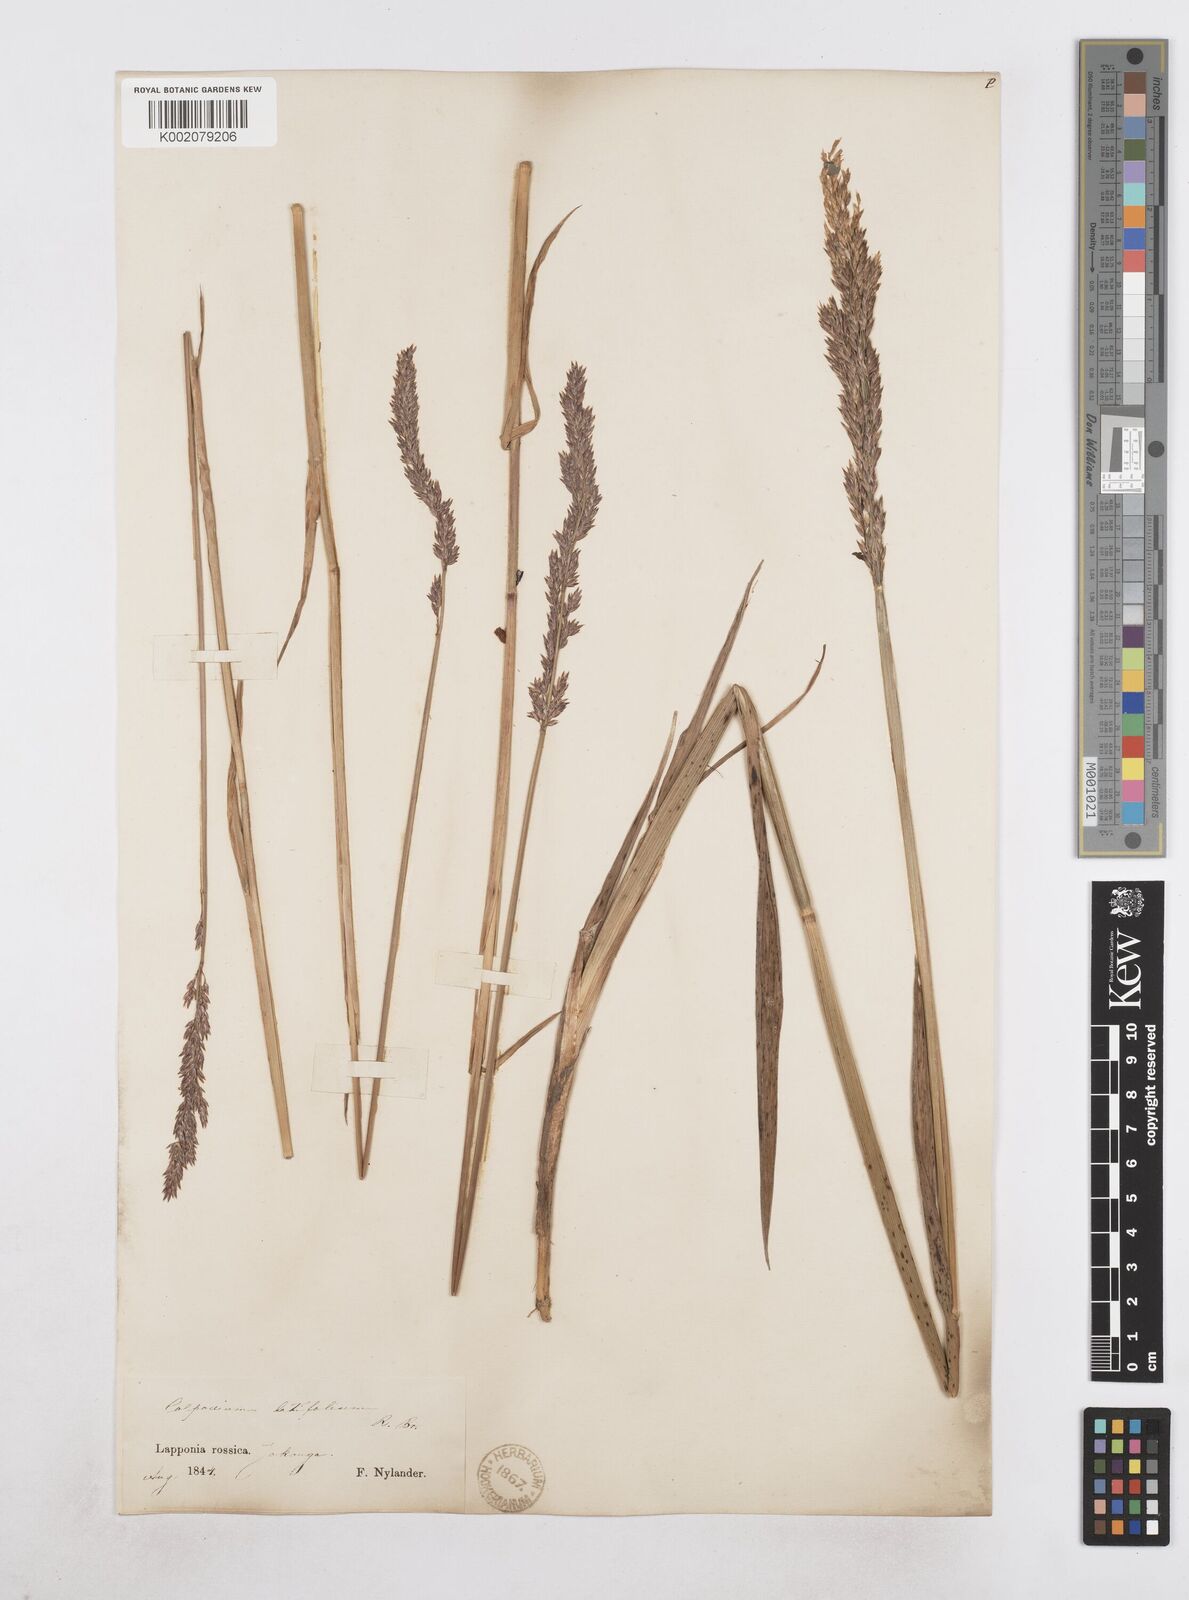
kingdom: Plantae
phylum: Tracheophyta
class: Liliopsida
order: Poales
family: Poaceae
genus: Arctagrostis
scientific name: Arctagrostis latifolia
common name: Arctic grass
